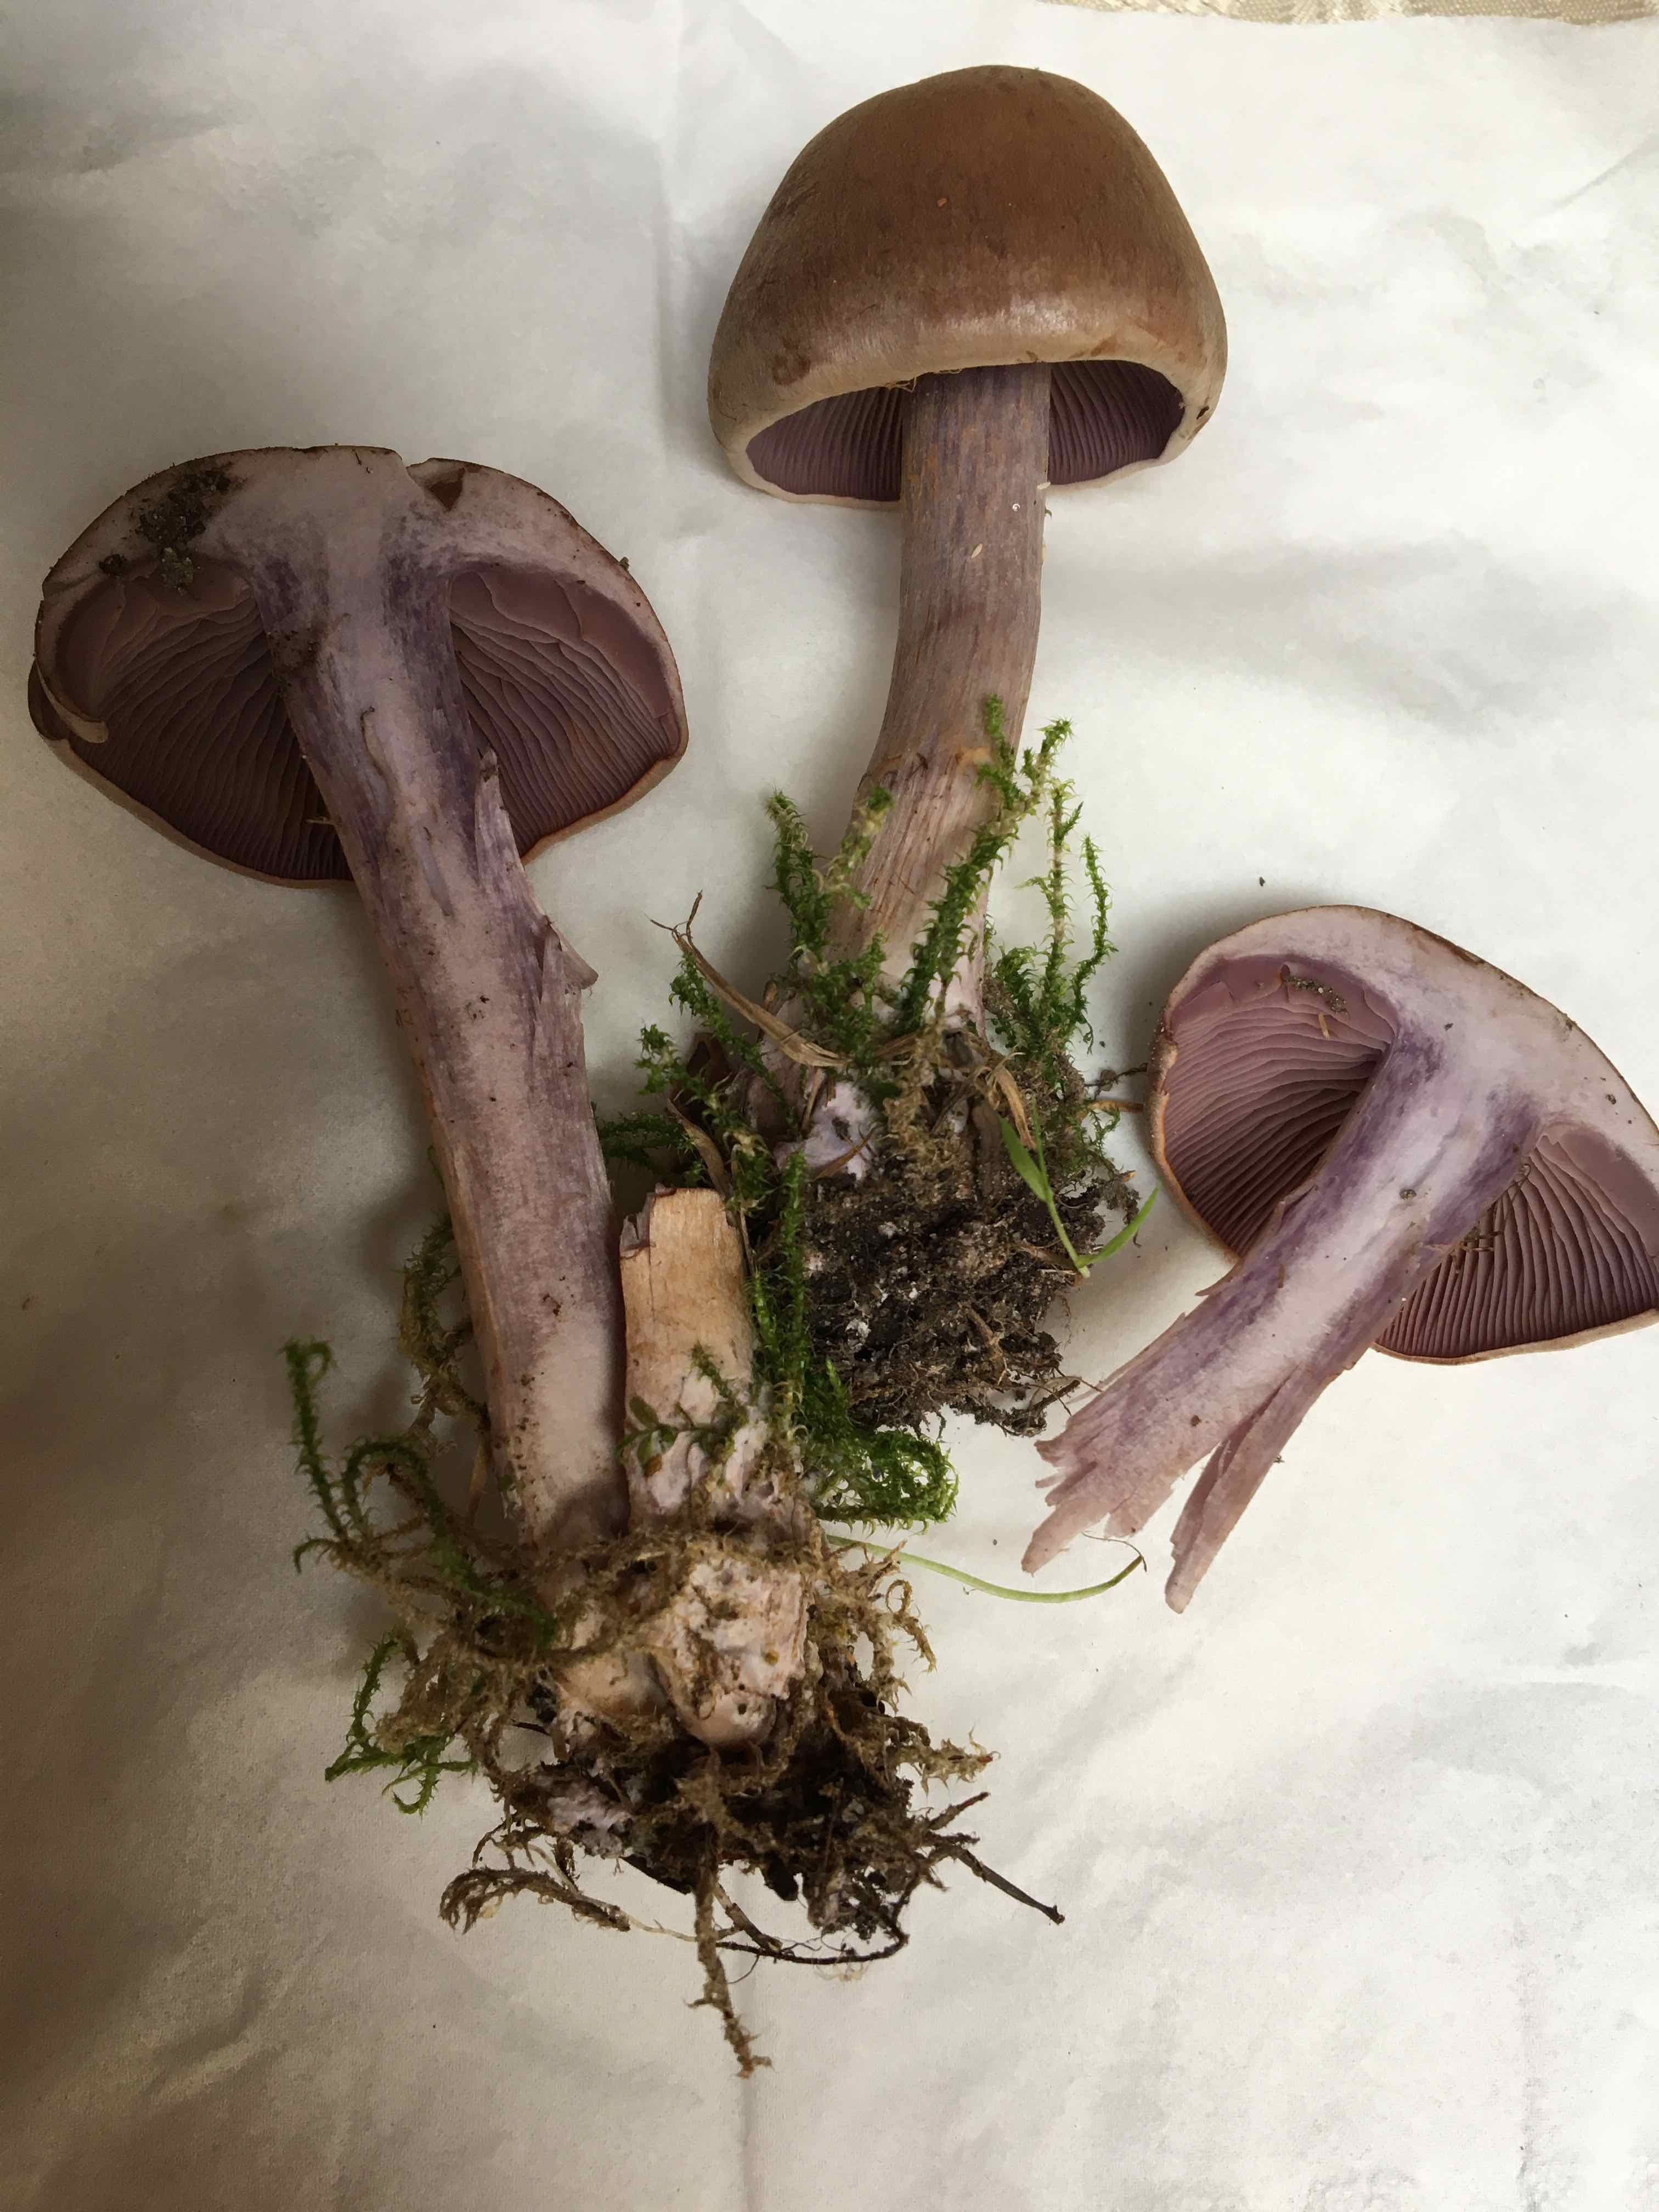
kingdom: Fungi
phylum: Basidiomycota
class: Agaricomycetes
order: Agaricales
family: Cortinariaceae
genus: Cortinarius
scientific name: Cortinarius caninus
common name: gran-slørhat
